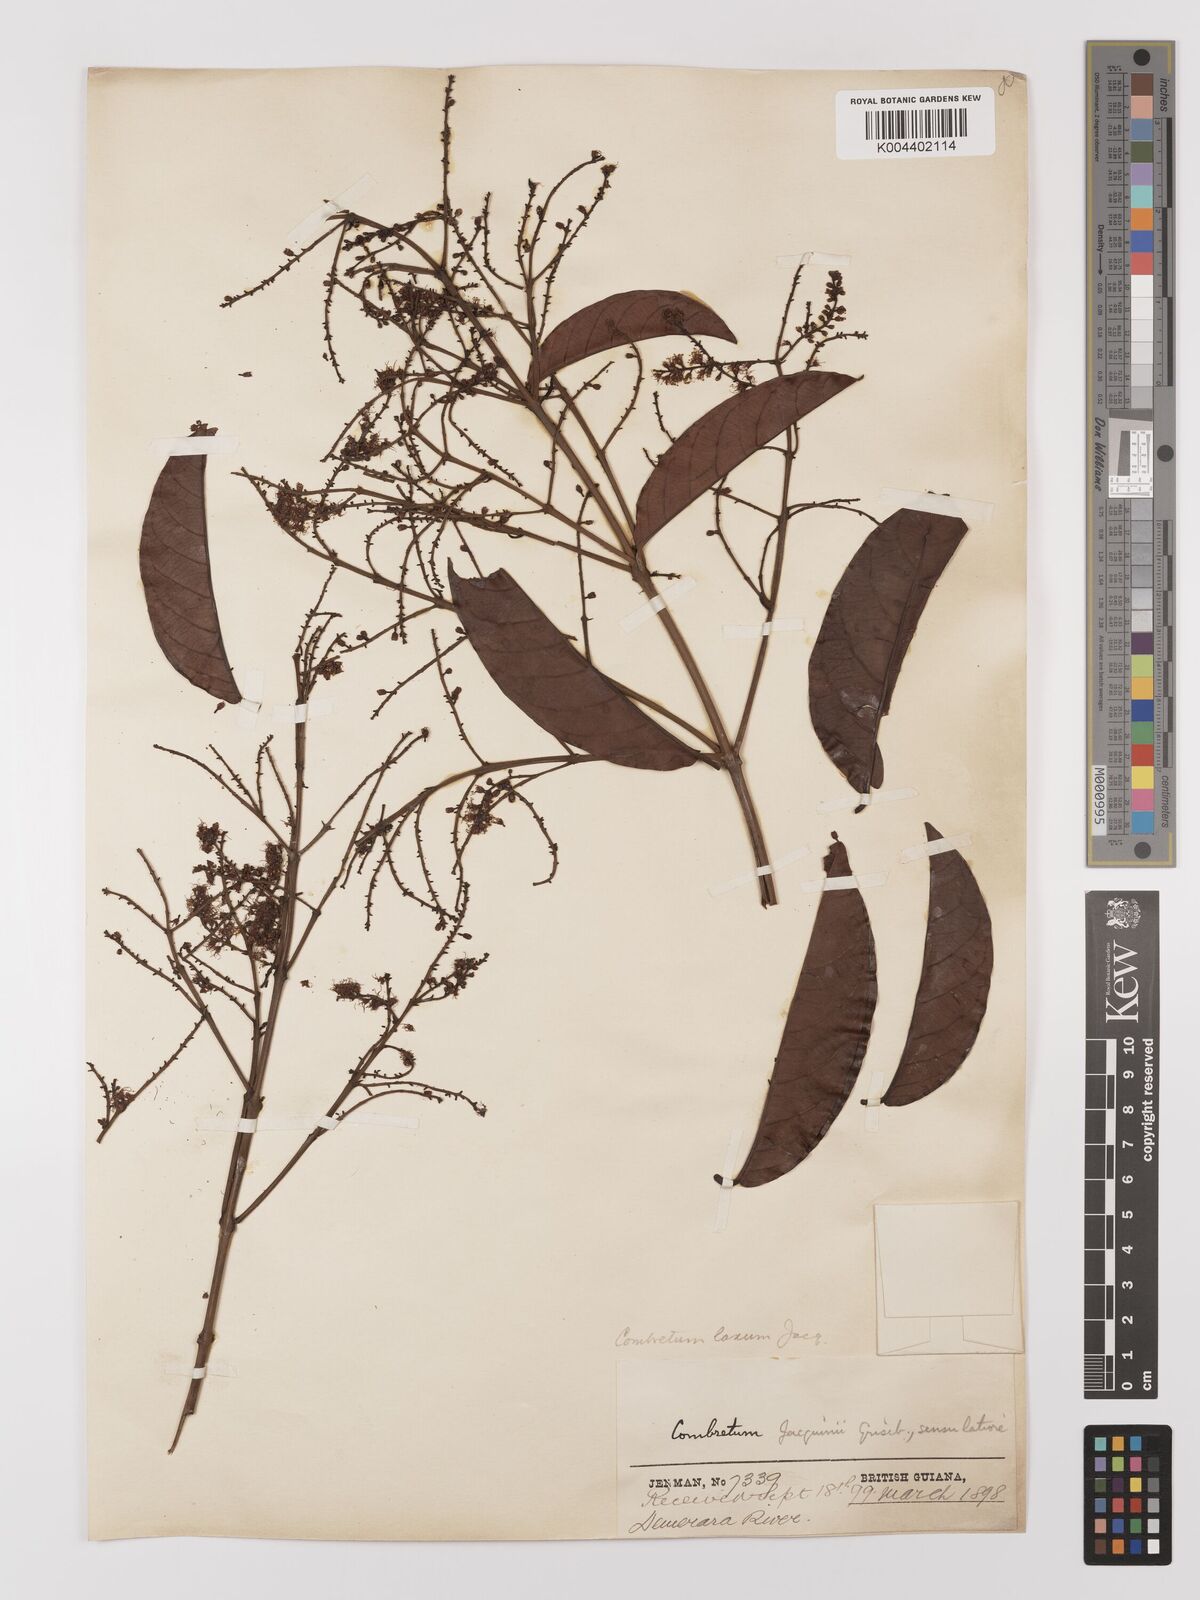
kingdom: Plantae
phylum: Tracheophyta
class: Magnoliopsida
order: Myrtales
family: Combretaceae
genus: Combretum
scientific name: Combretum
